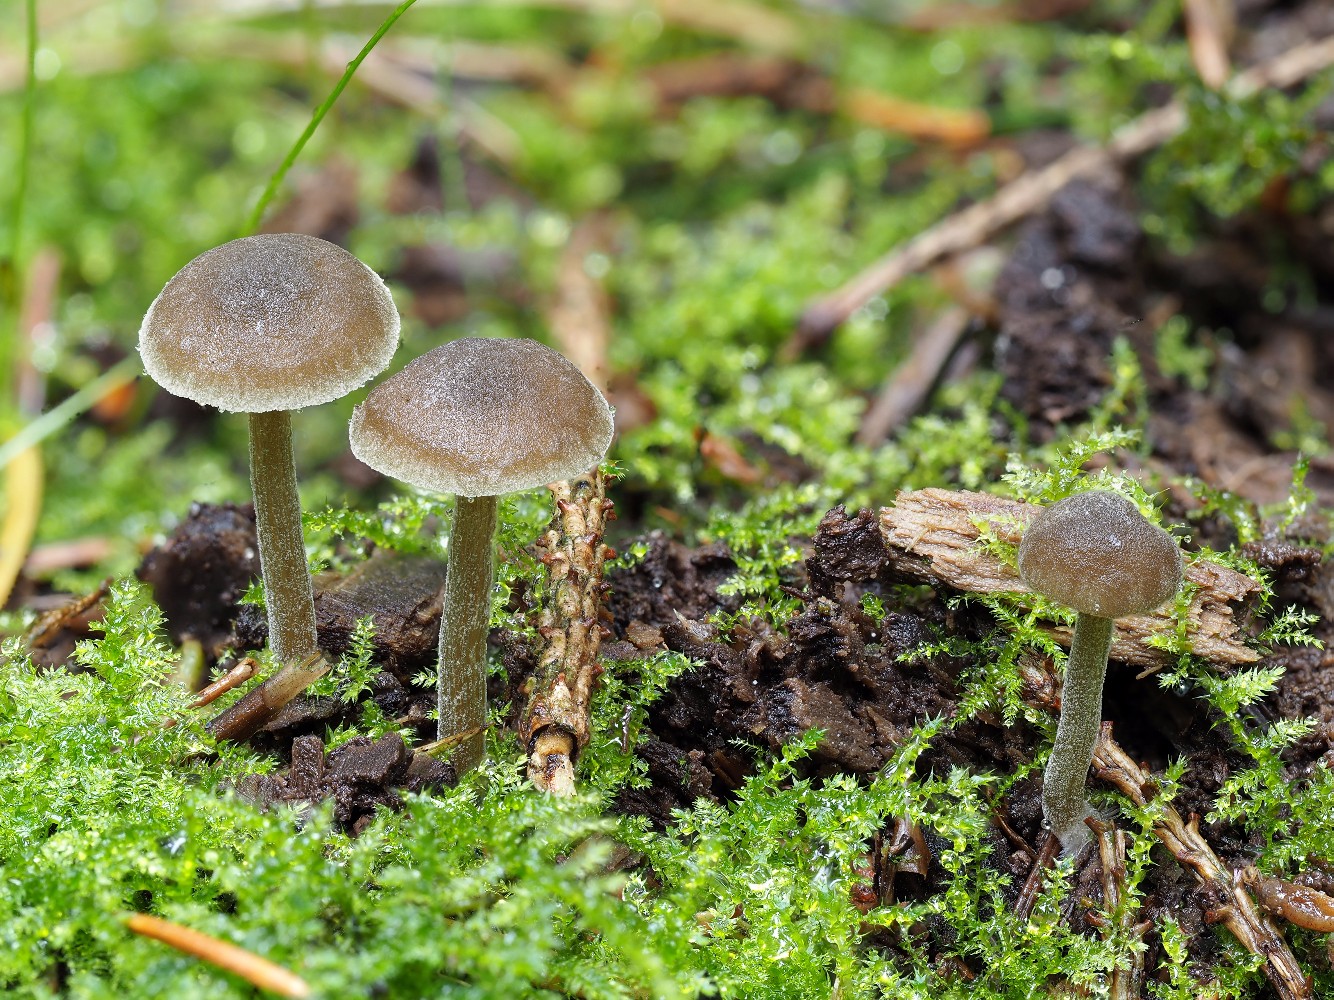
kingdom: Fungi
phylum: Basidiomycota
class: Agaricomycetes
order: Agaricales
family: Crepidotaceae
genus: Simocybe
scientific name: Simocybe centunculus
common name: enlig skyggehat
